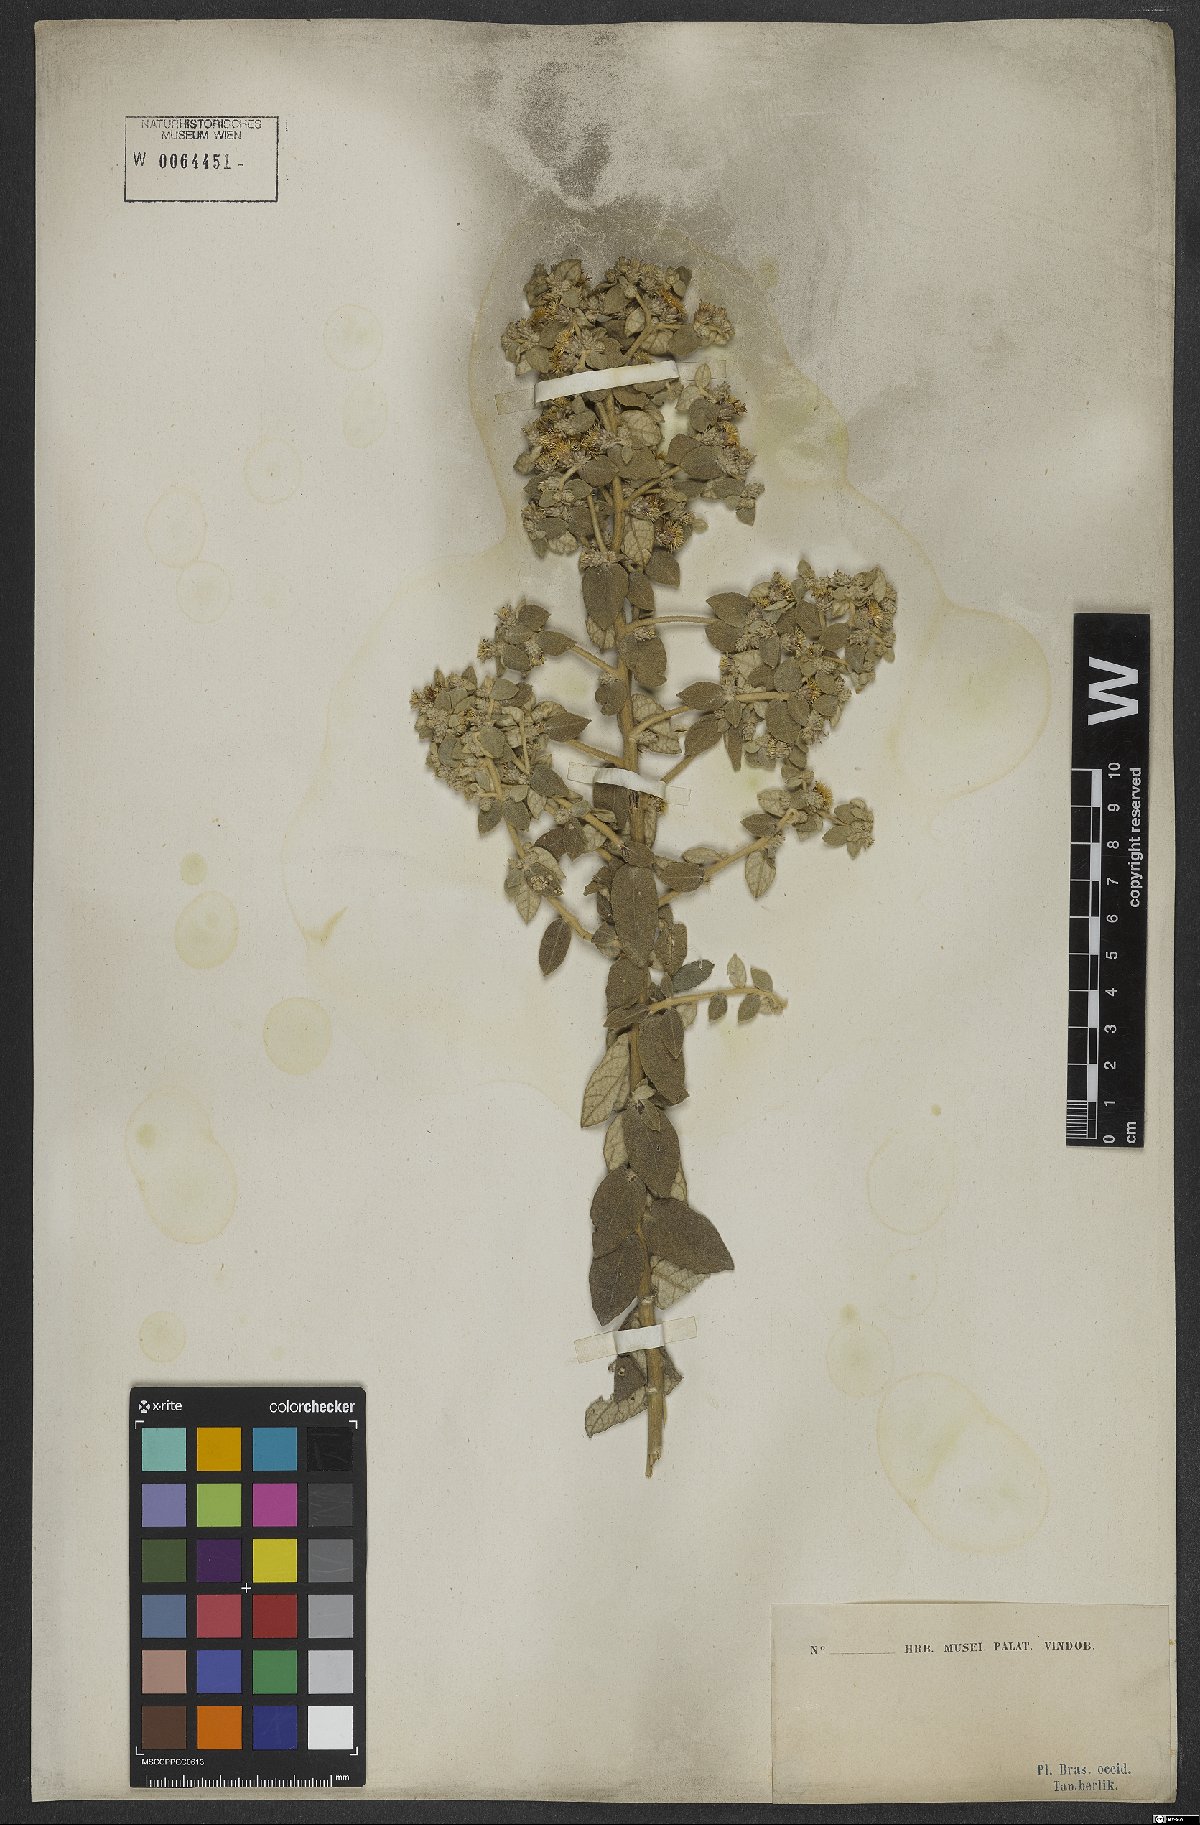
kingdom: Plantae
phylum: Tracheophyta
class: Magnoliopsida
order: Asterales
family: Asteraceae
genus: Lessingianthus
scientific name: Lessingianthus lacunosus
